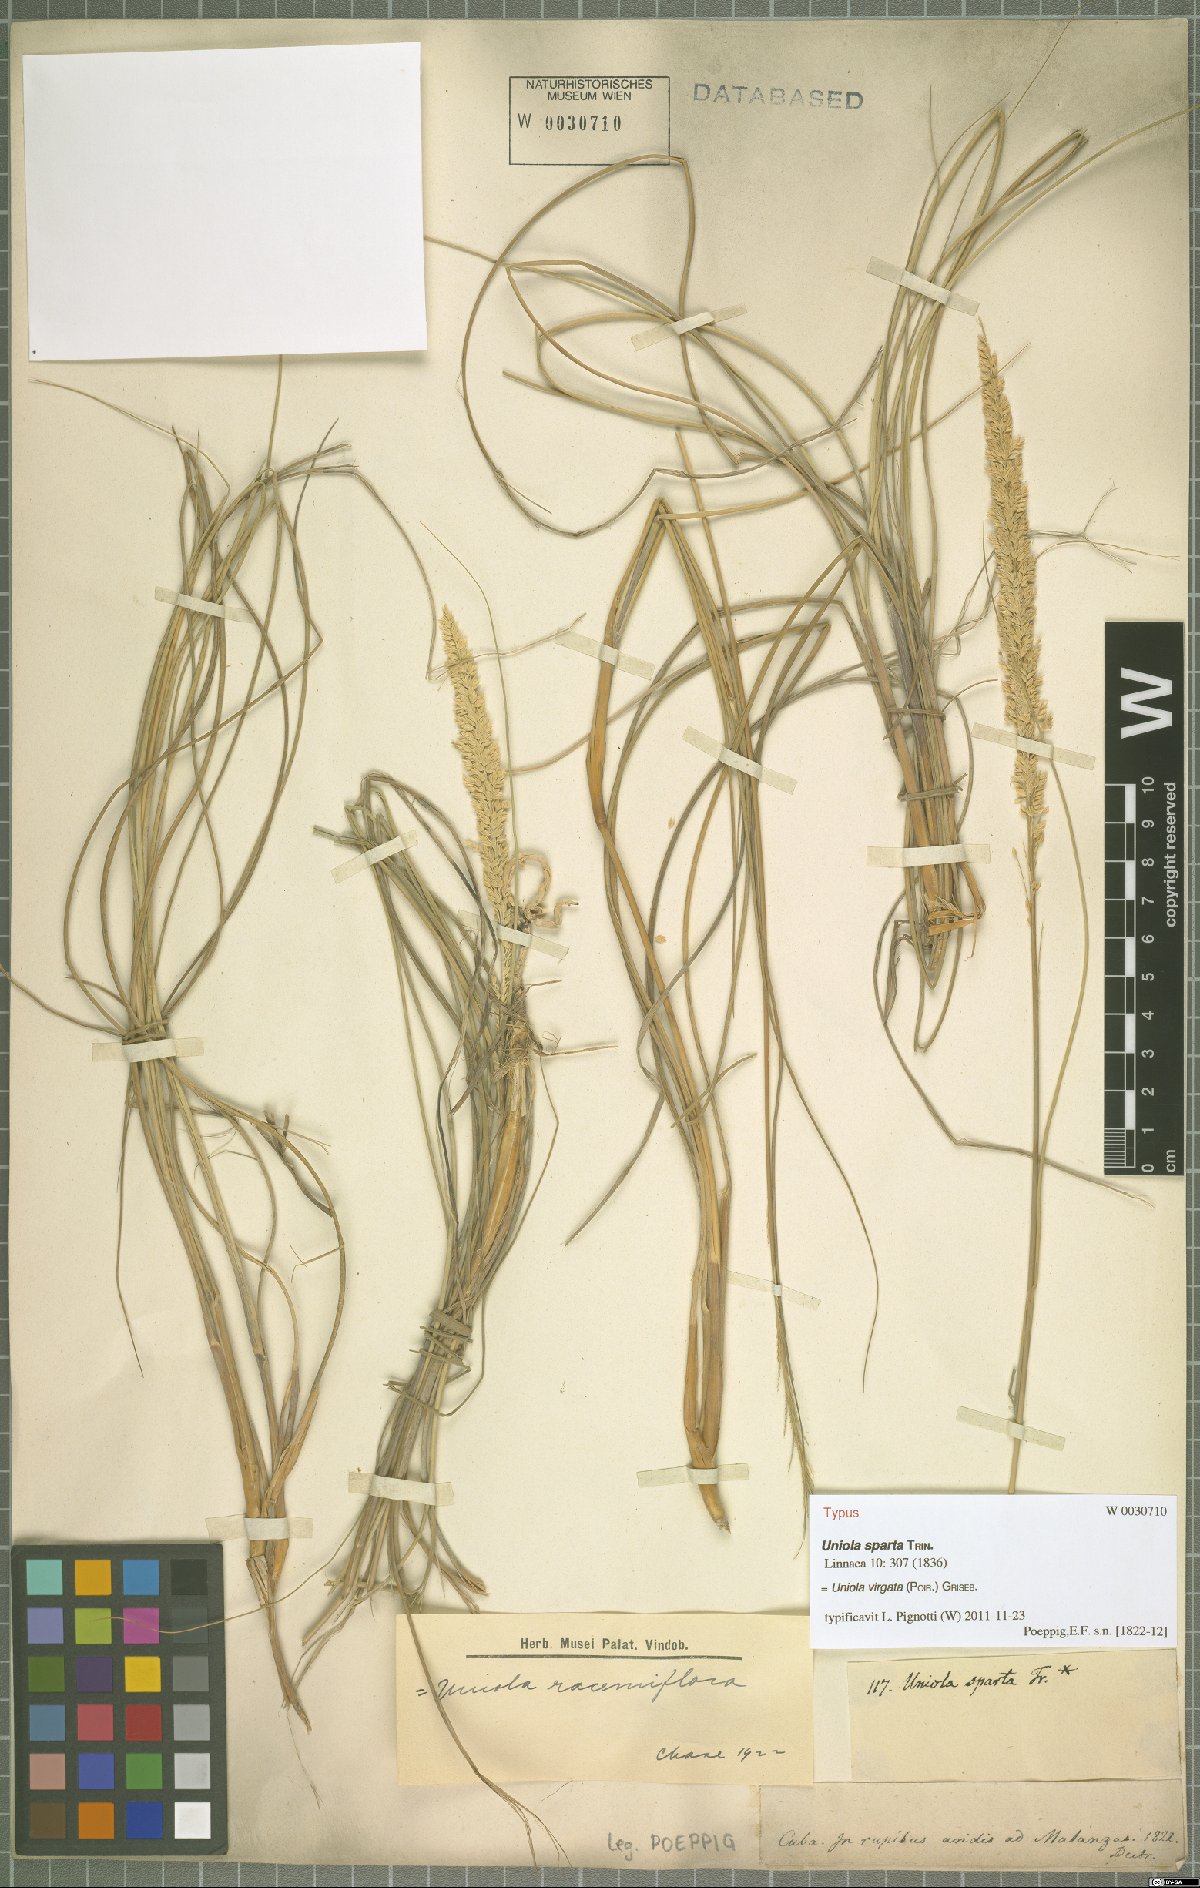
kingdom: Plantae
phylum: Tracheophyta
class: Liliopsida
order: Poales
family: Poaceae
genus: Uniola
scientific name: Uniola virgata
